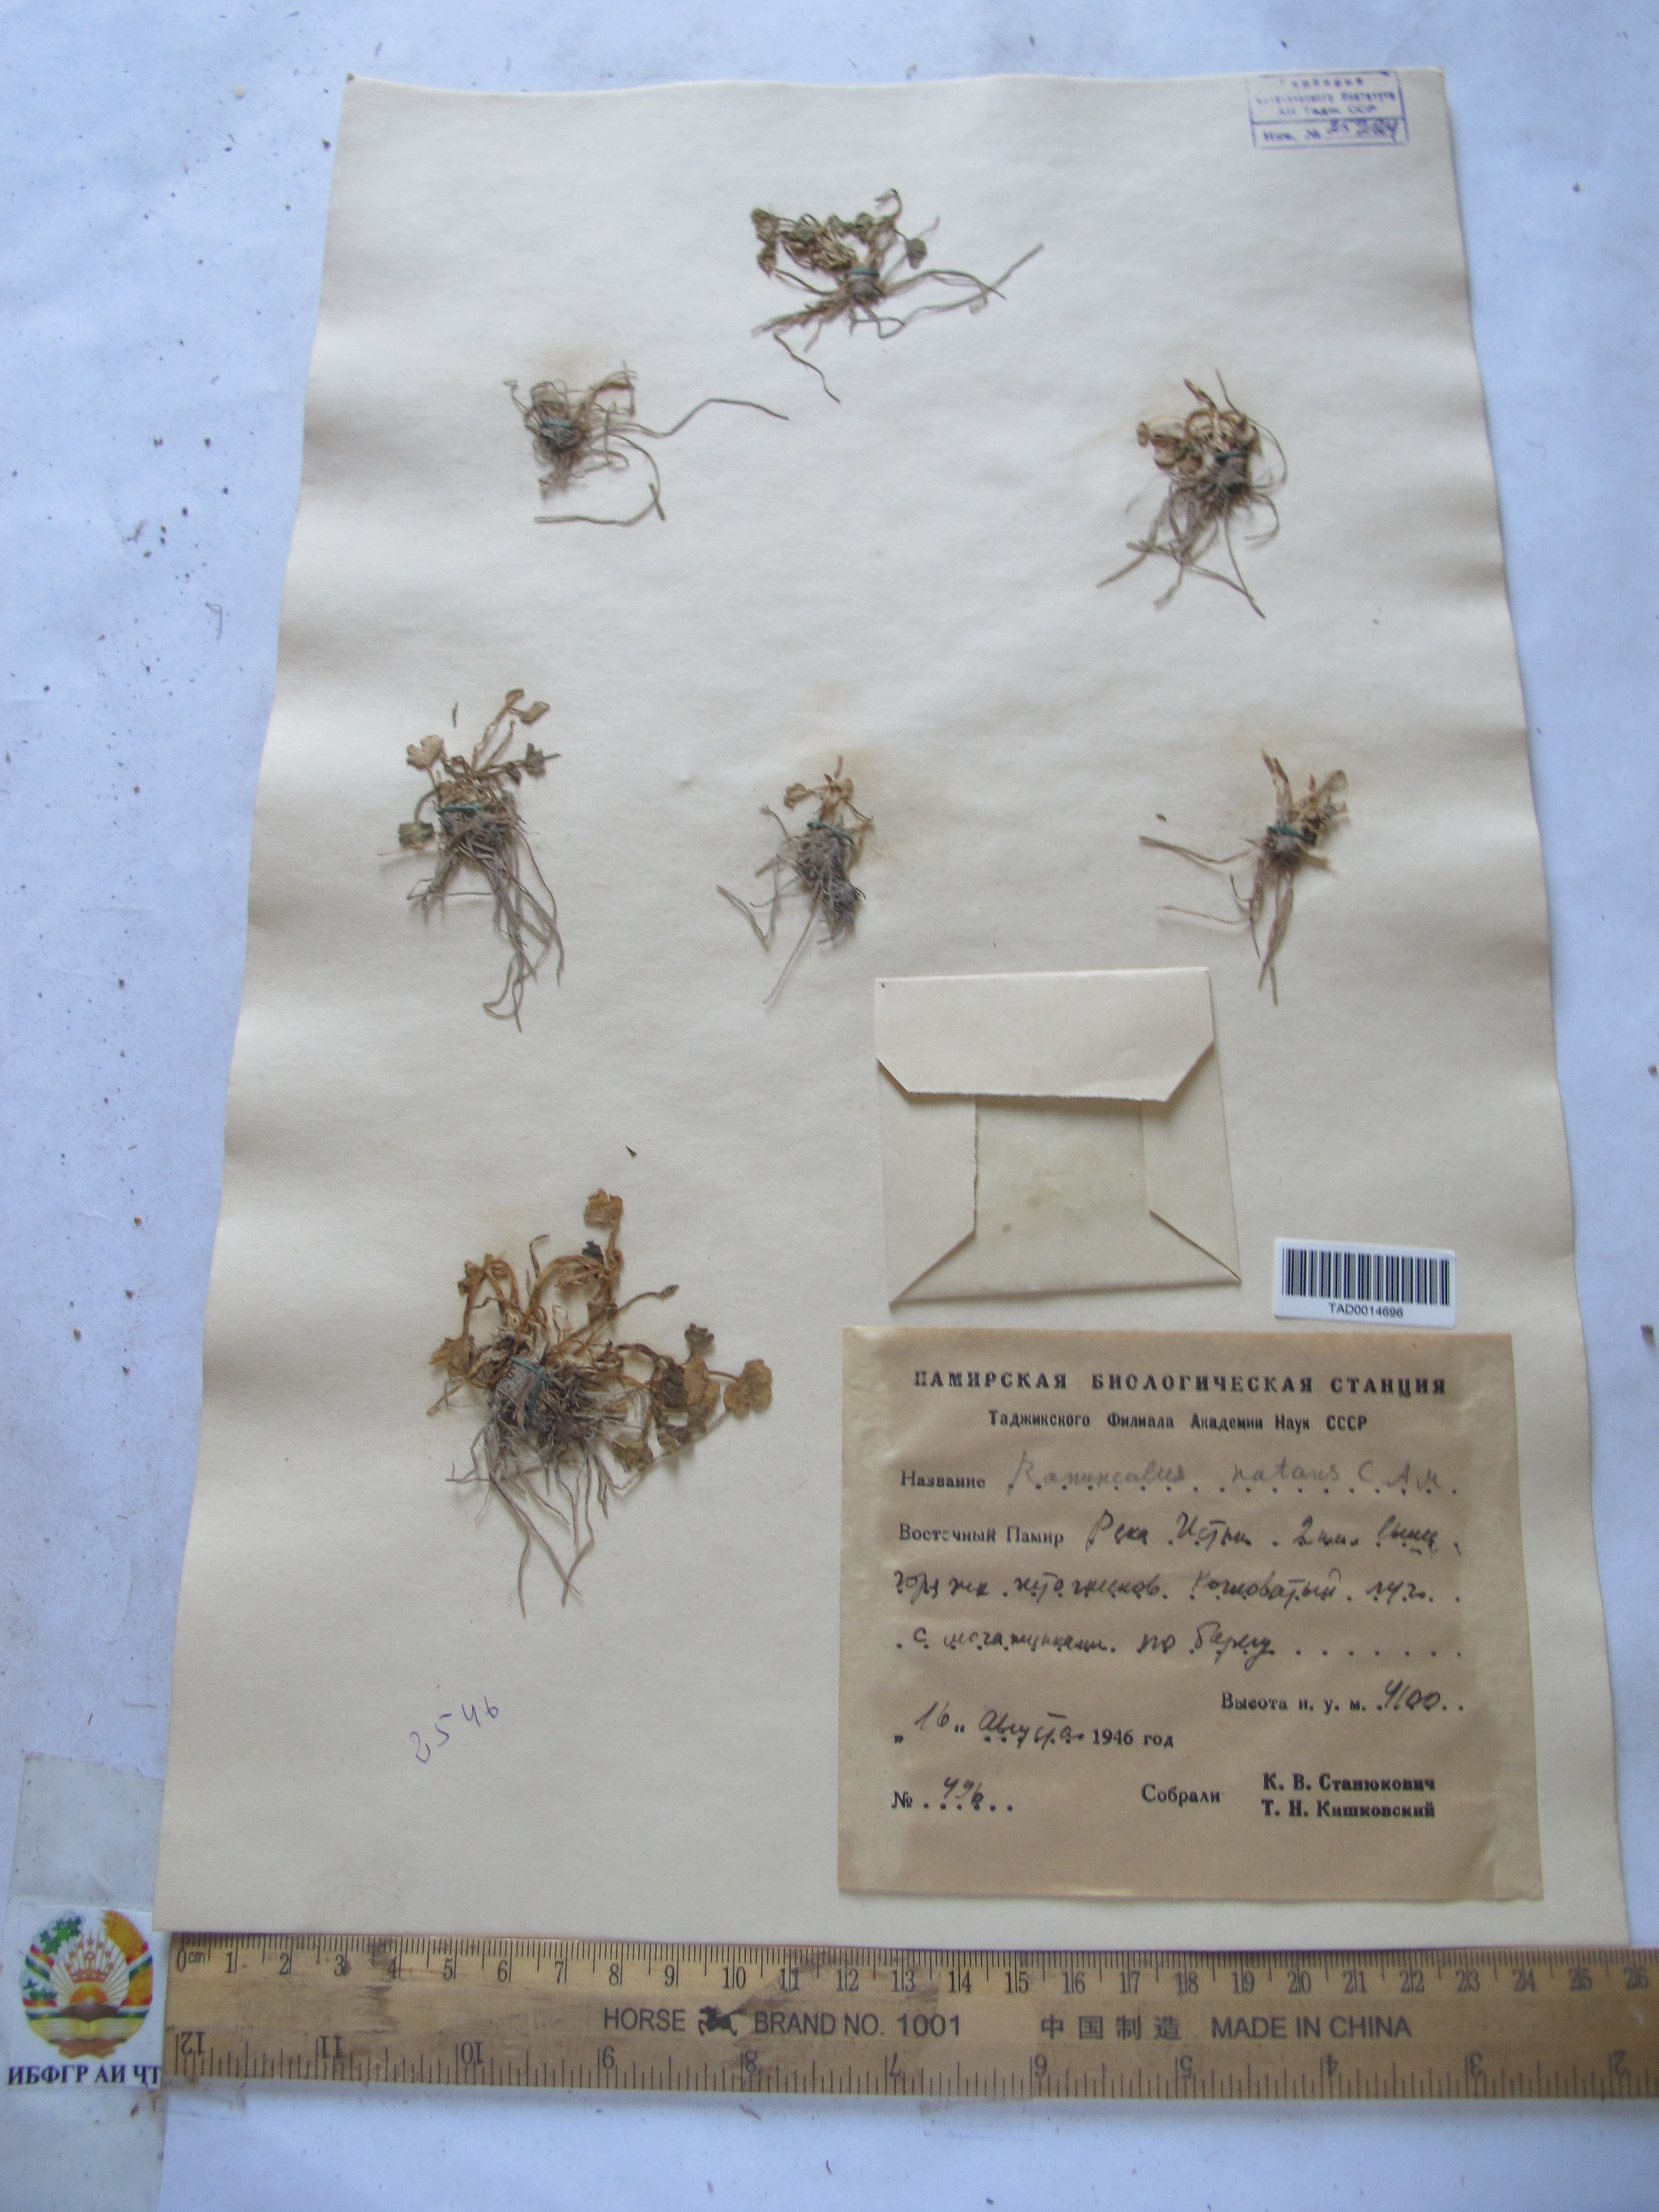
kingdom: Plantae
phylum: Tracheophyta
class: Magnoliopsida
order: Ranunculales
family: Ranunculaceae
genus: Ranunculus
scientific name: Ranunculus natans
